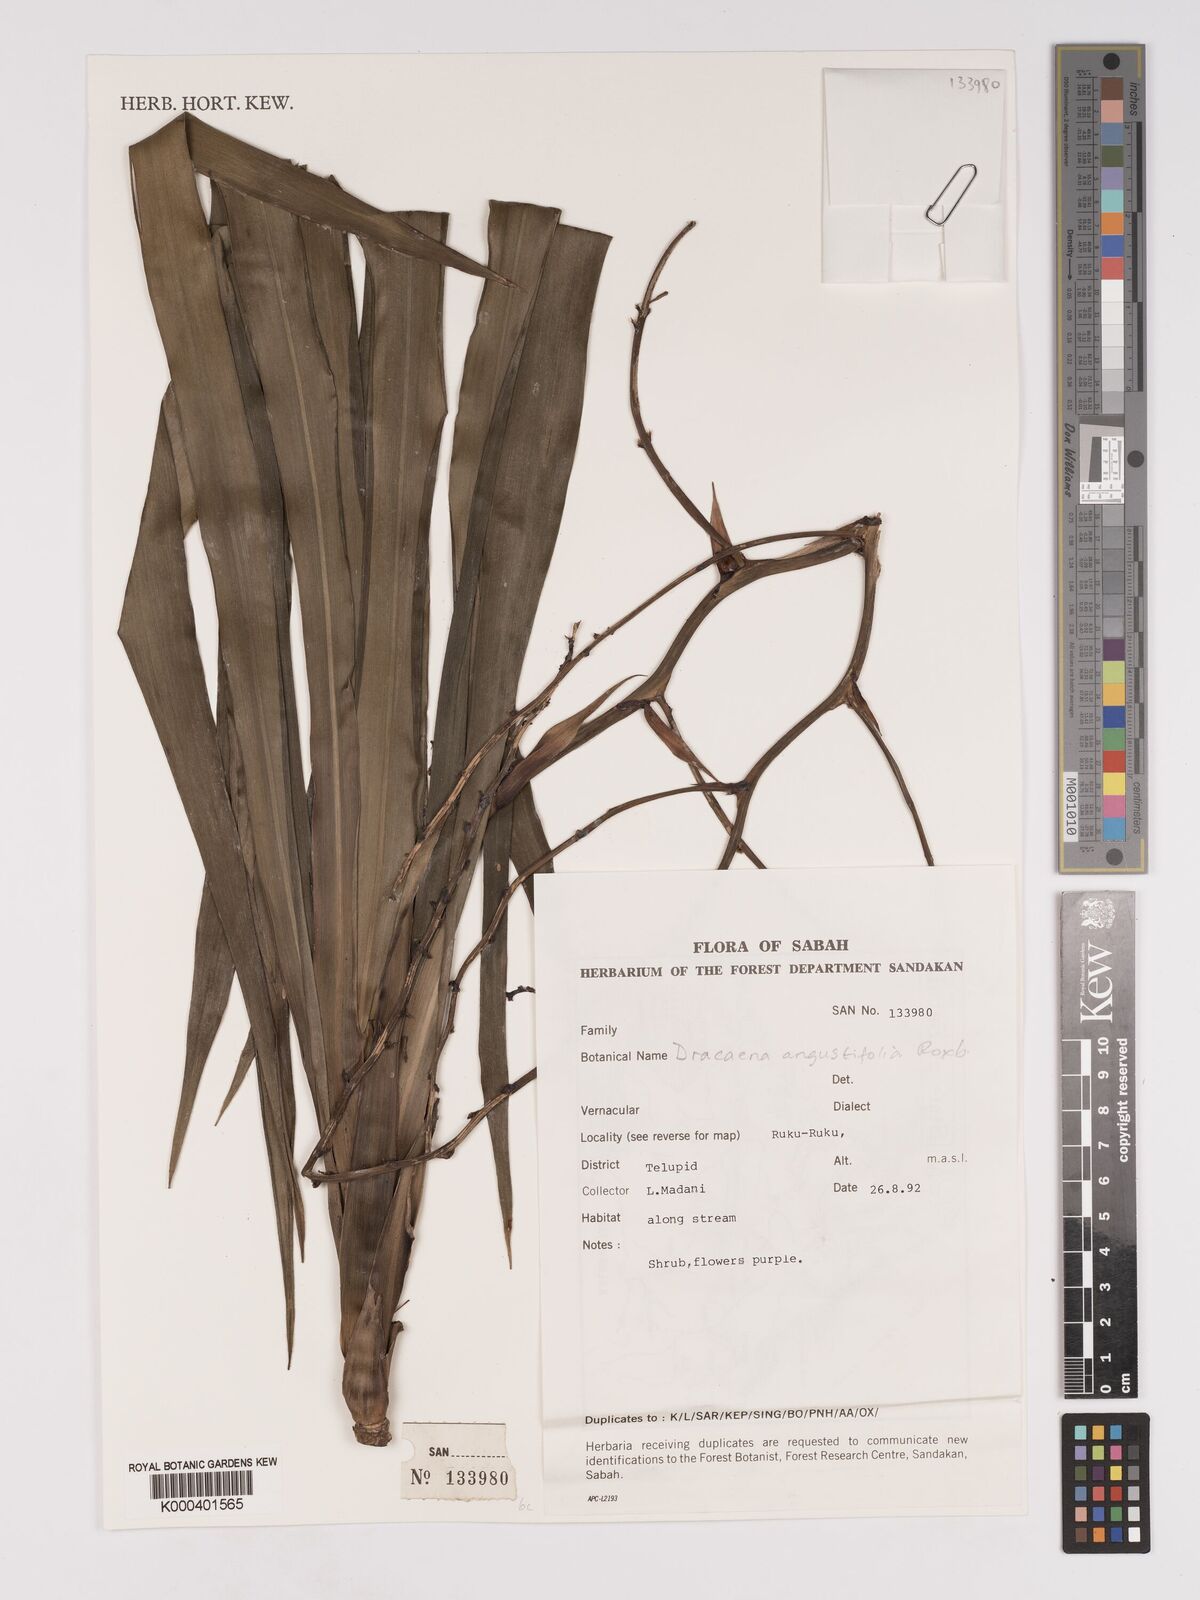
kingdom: Plantae
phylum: Tracheophyta
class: Liliopsida
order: Asparagales
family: Asparagaceae
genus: Dracaena
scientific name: Dracaena angustifolia
